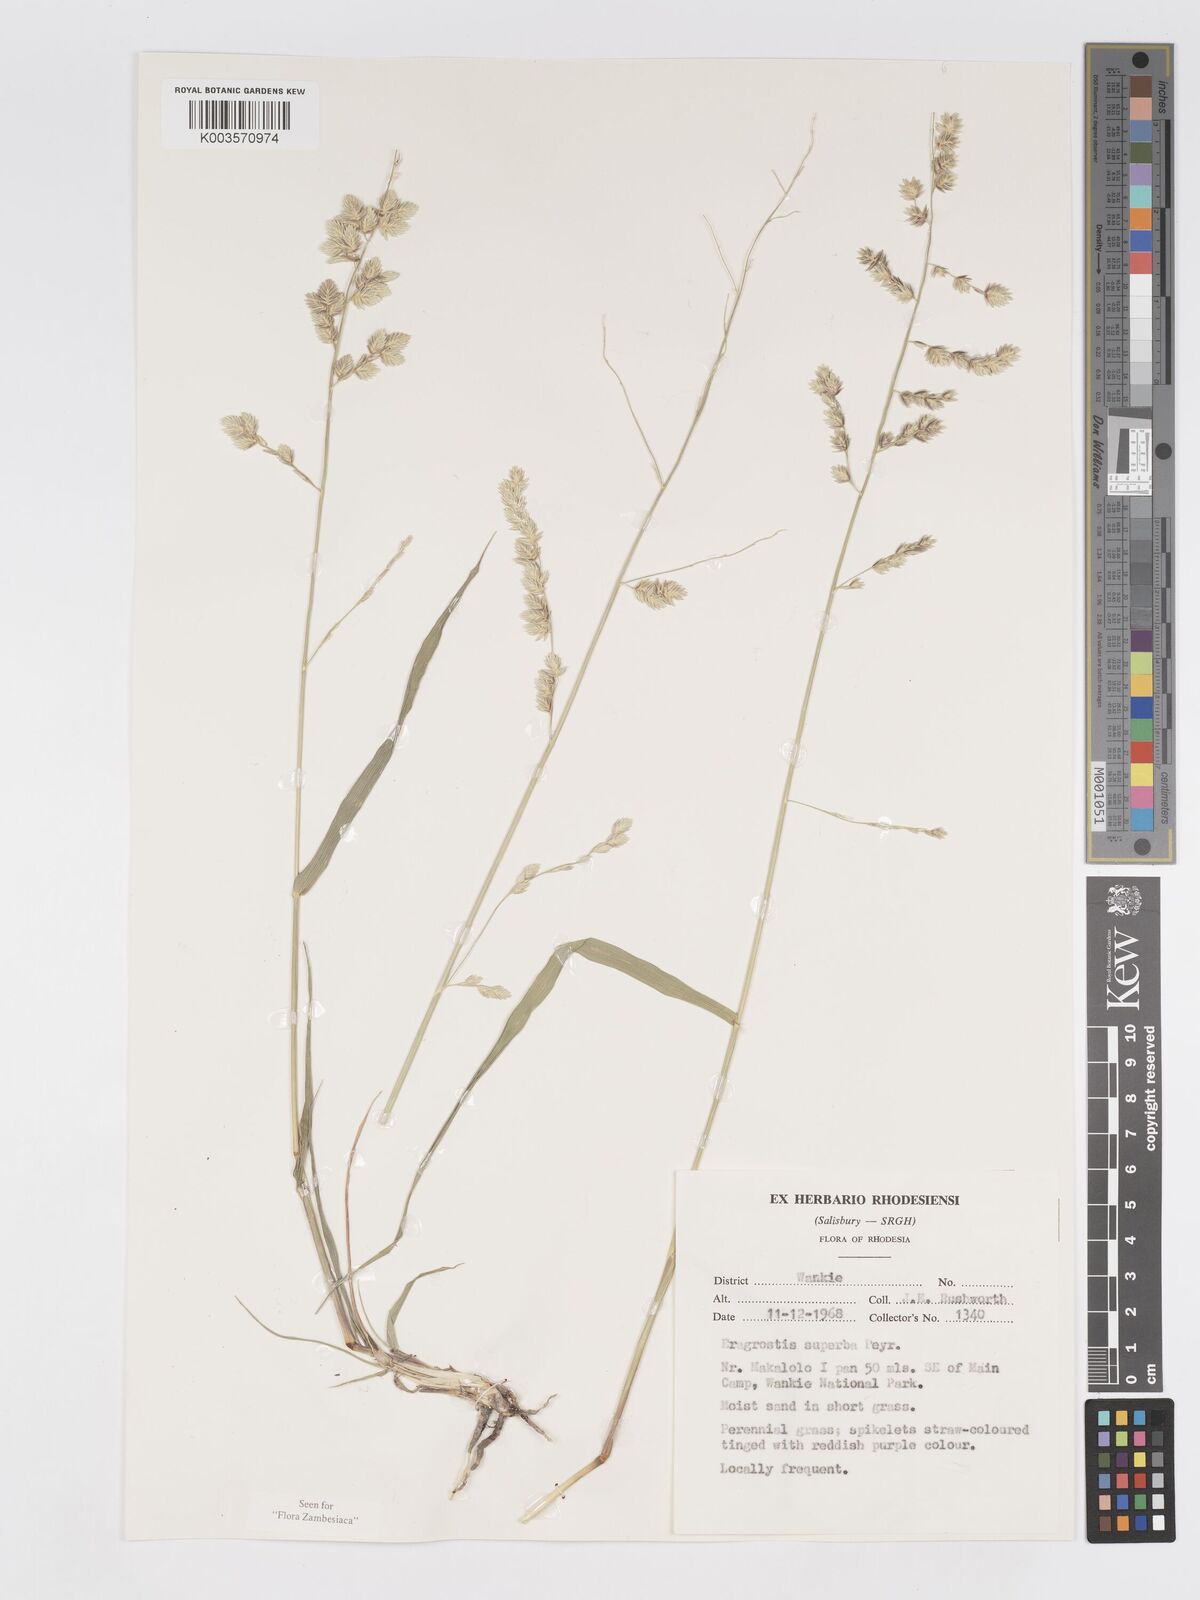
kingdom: Plantae
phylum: Tracheophyta
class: Liliopsida
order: Poales
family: Poaceae
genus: Eragrostis
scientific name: Eragrostis superba
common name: Wilman lovegrass
